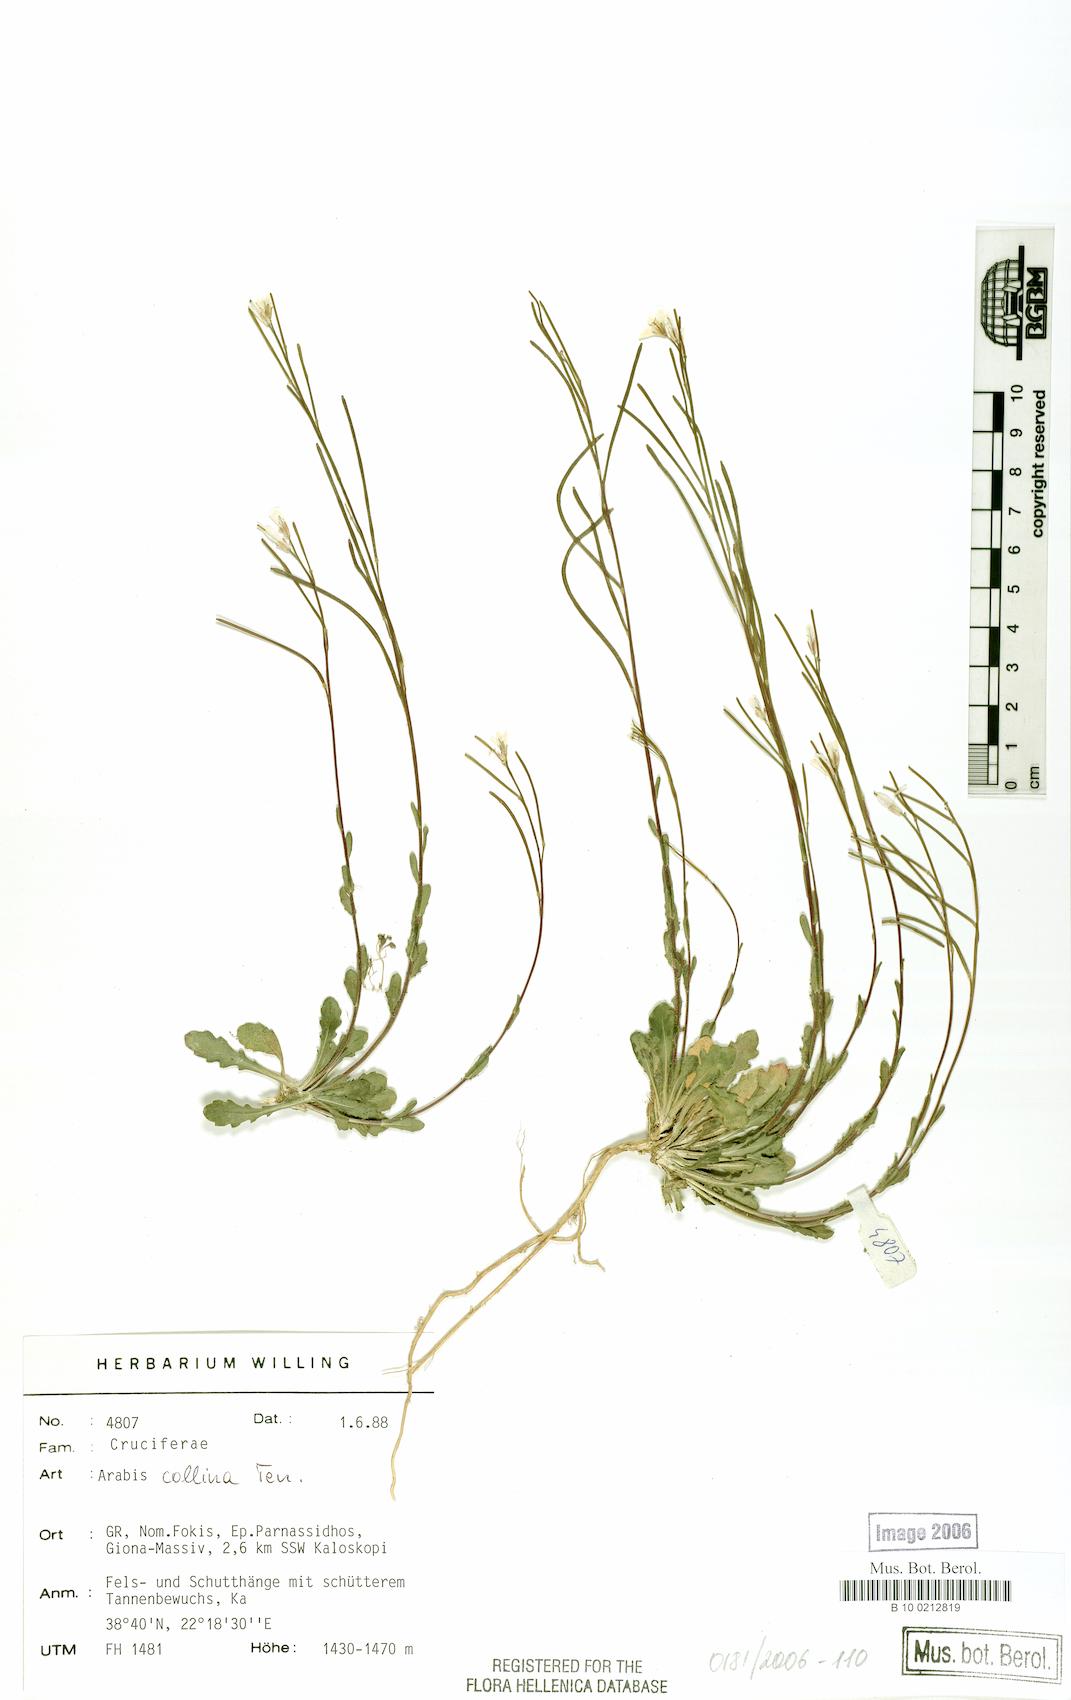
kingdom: Plantae
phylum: Tracheophyta
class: Magnoliopsida
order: Brassicales
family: Brassicaceae
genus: Arabis
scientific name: Arabis collina
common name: Rosy cress
